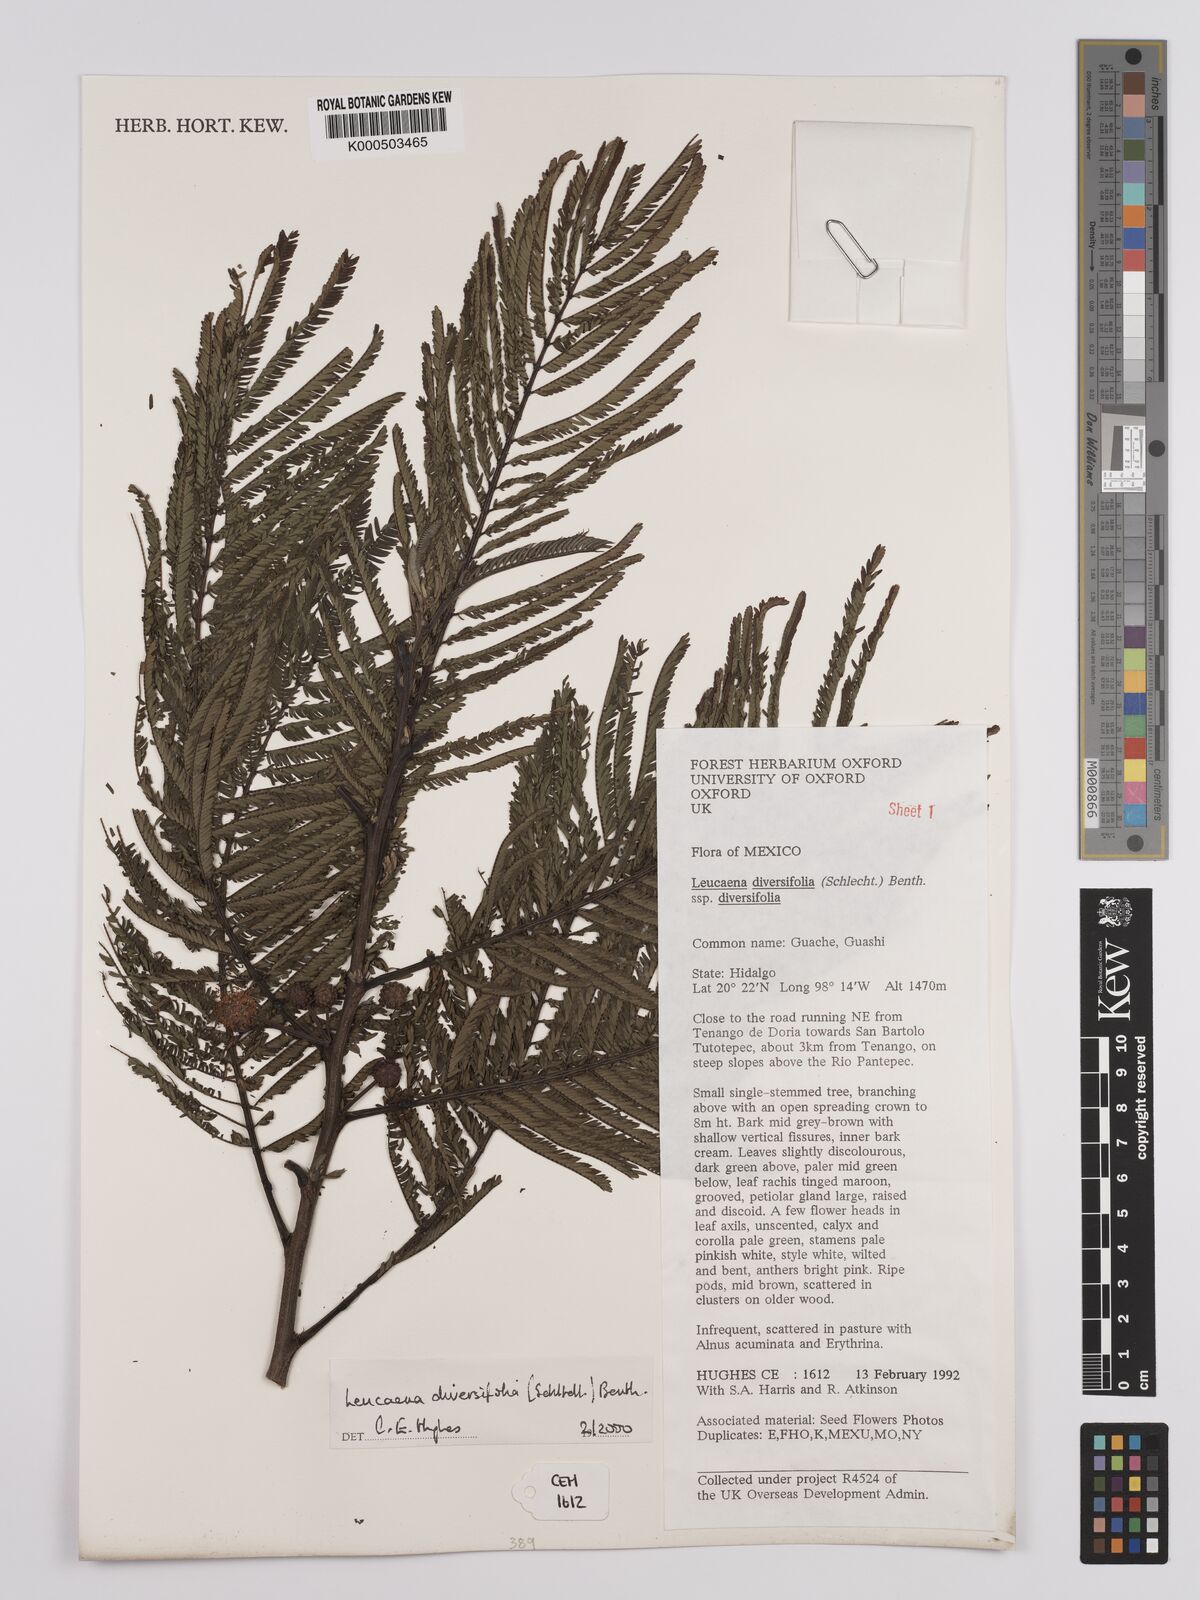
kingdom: Plantae
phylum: Tracheophyta
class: Magnoliopsida
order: Fabales
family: Fabaceae
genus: Leucaena
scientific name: Leucaena diversifolia
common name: Red leucaena
